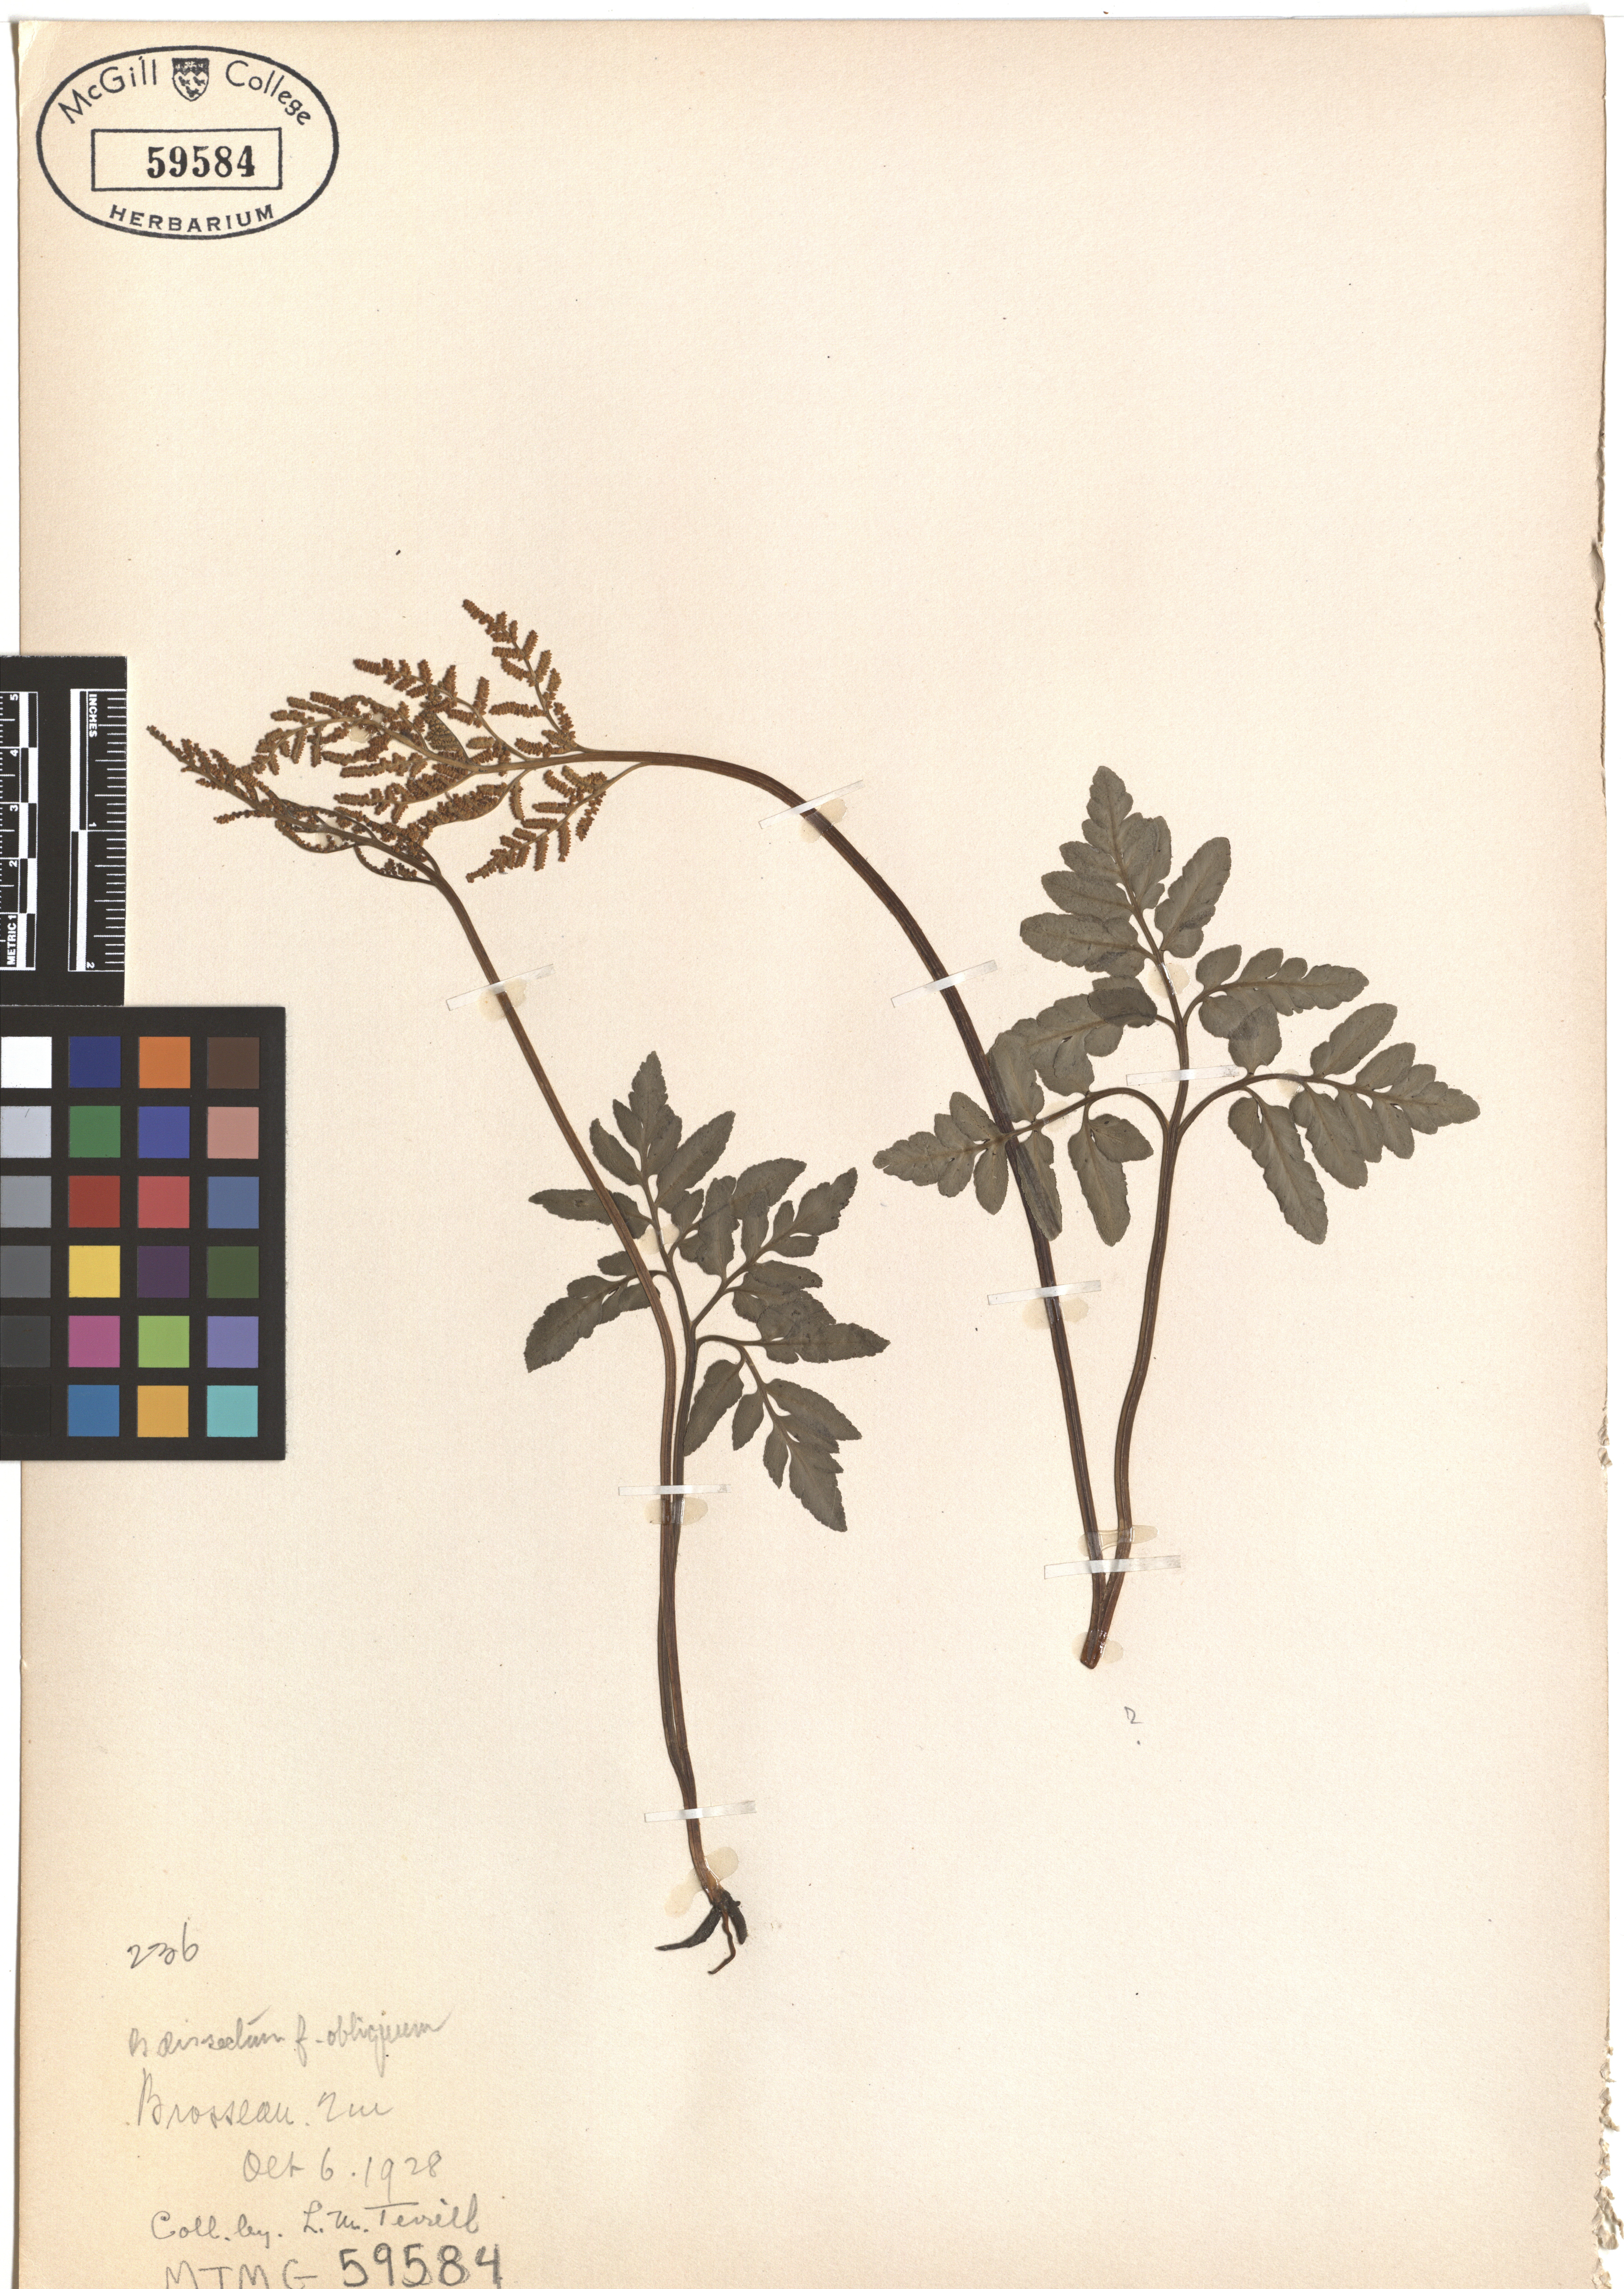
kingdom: Plantae
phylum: Tracheophyta
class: Polypodiopsida
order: Ophioglossales
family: Ophioglossaceae
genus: Sceptridium
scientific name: Sceptridium dissectum
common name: Cut-leaved grapefern
